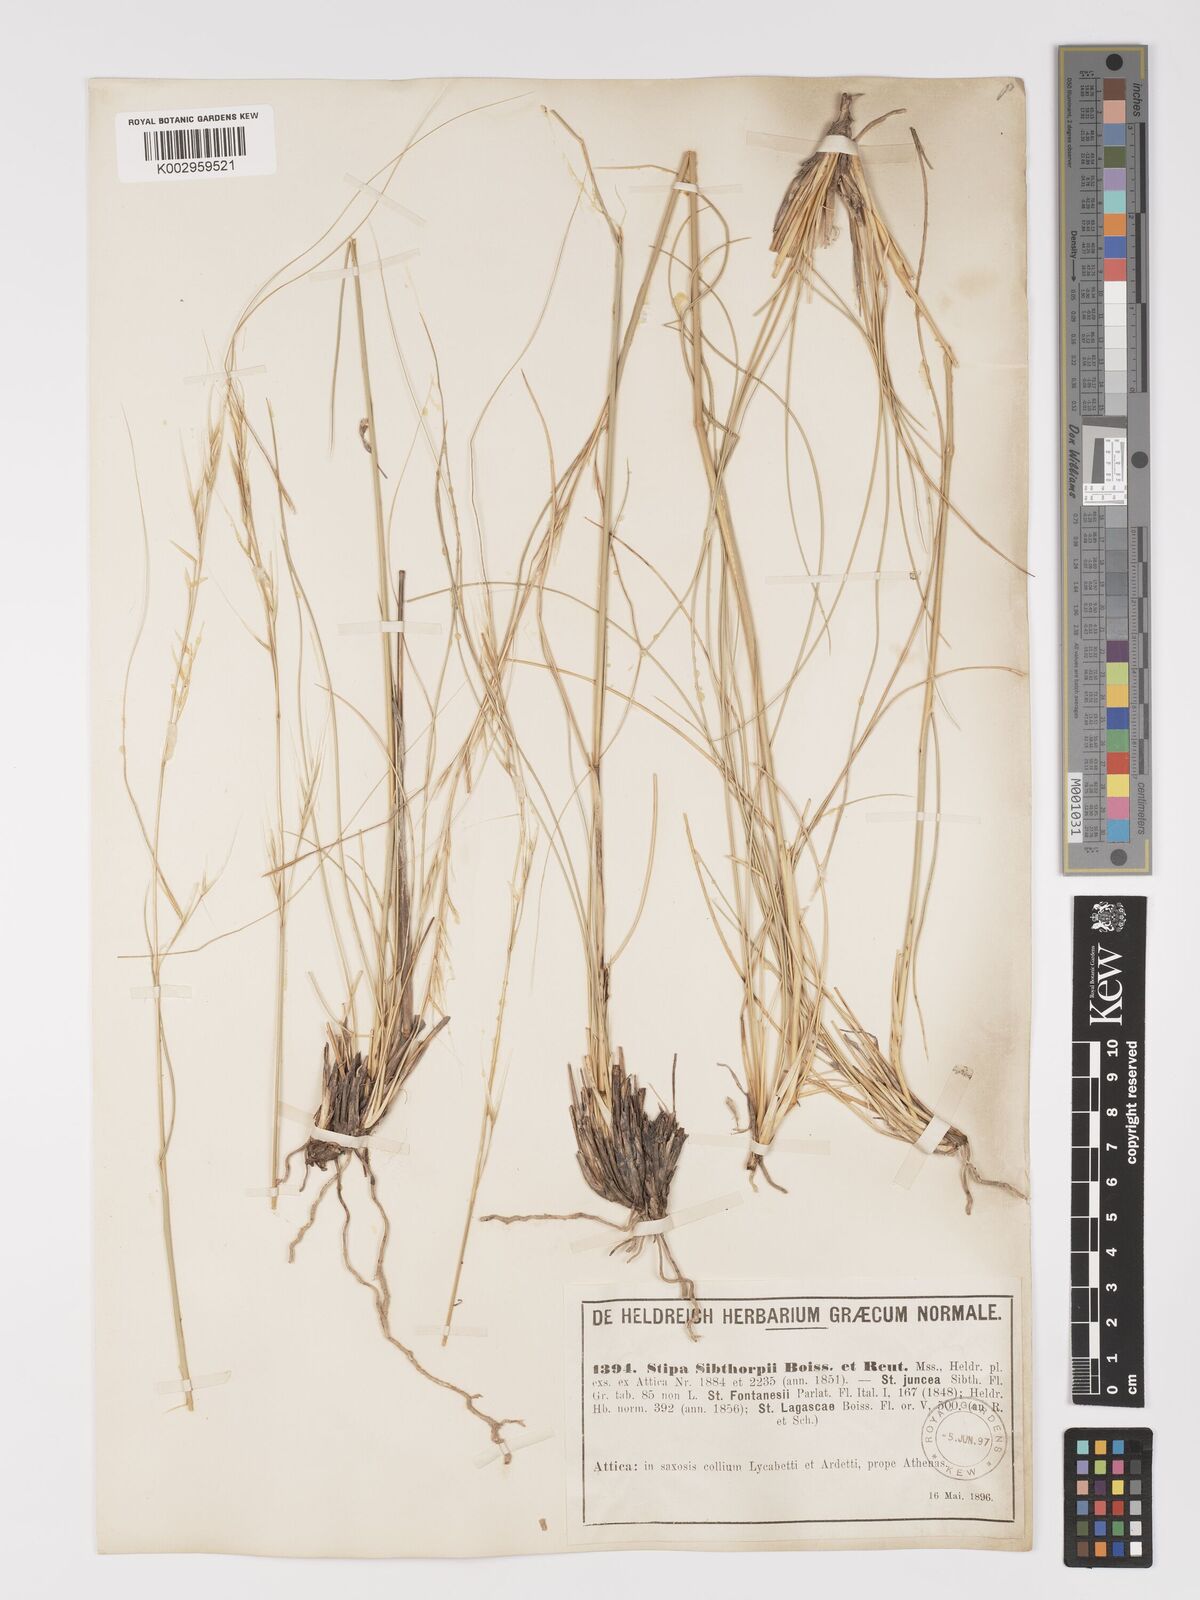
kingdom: Plantae
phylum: Tracheophyta
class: Liliopsida
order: Poales
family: Poaceae
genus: Stipa
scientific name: Stipa holosericea
